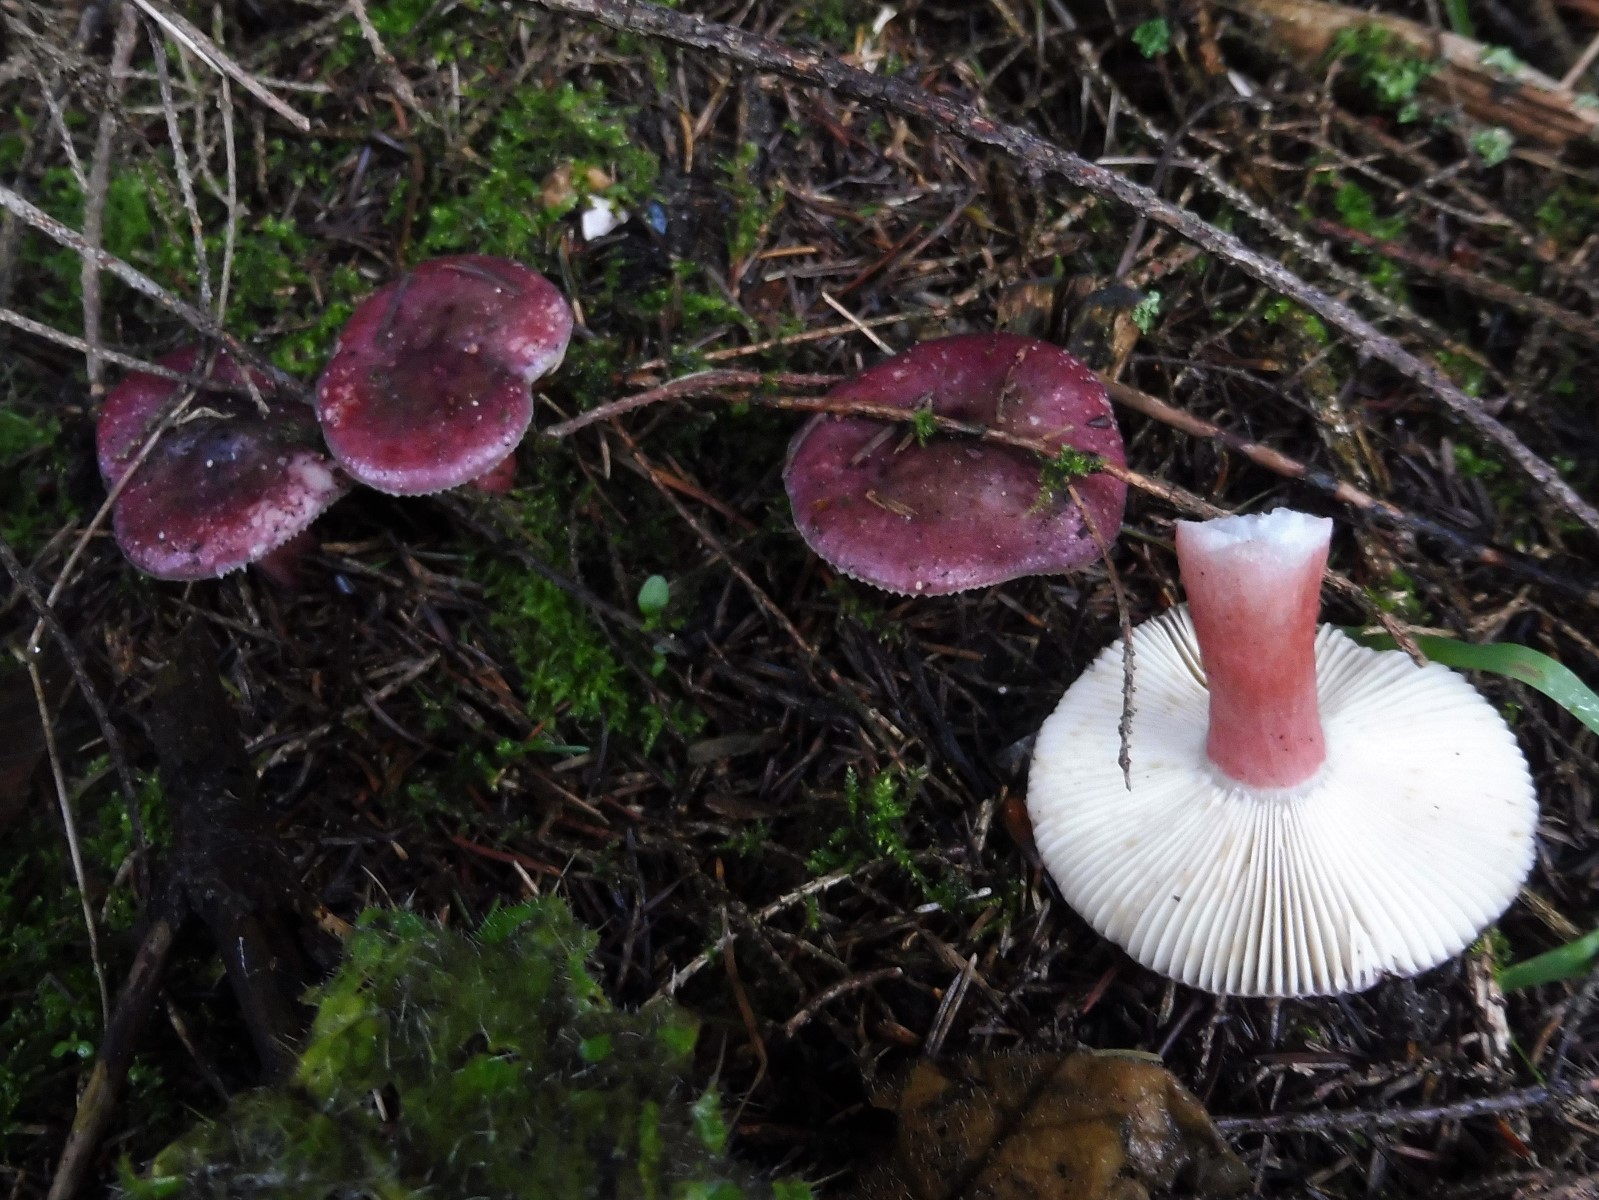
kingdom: Fungi
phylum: Basidiomycota
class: Agaricomycetes
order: Russulales
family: Russulaceae
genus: Russula
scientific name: Russula queletii
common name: Quélets skørhat
